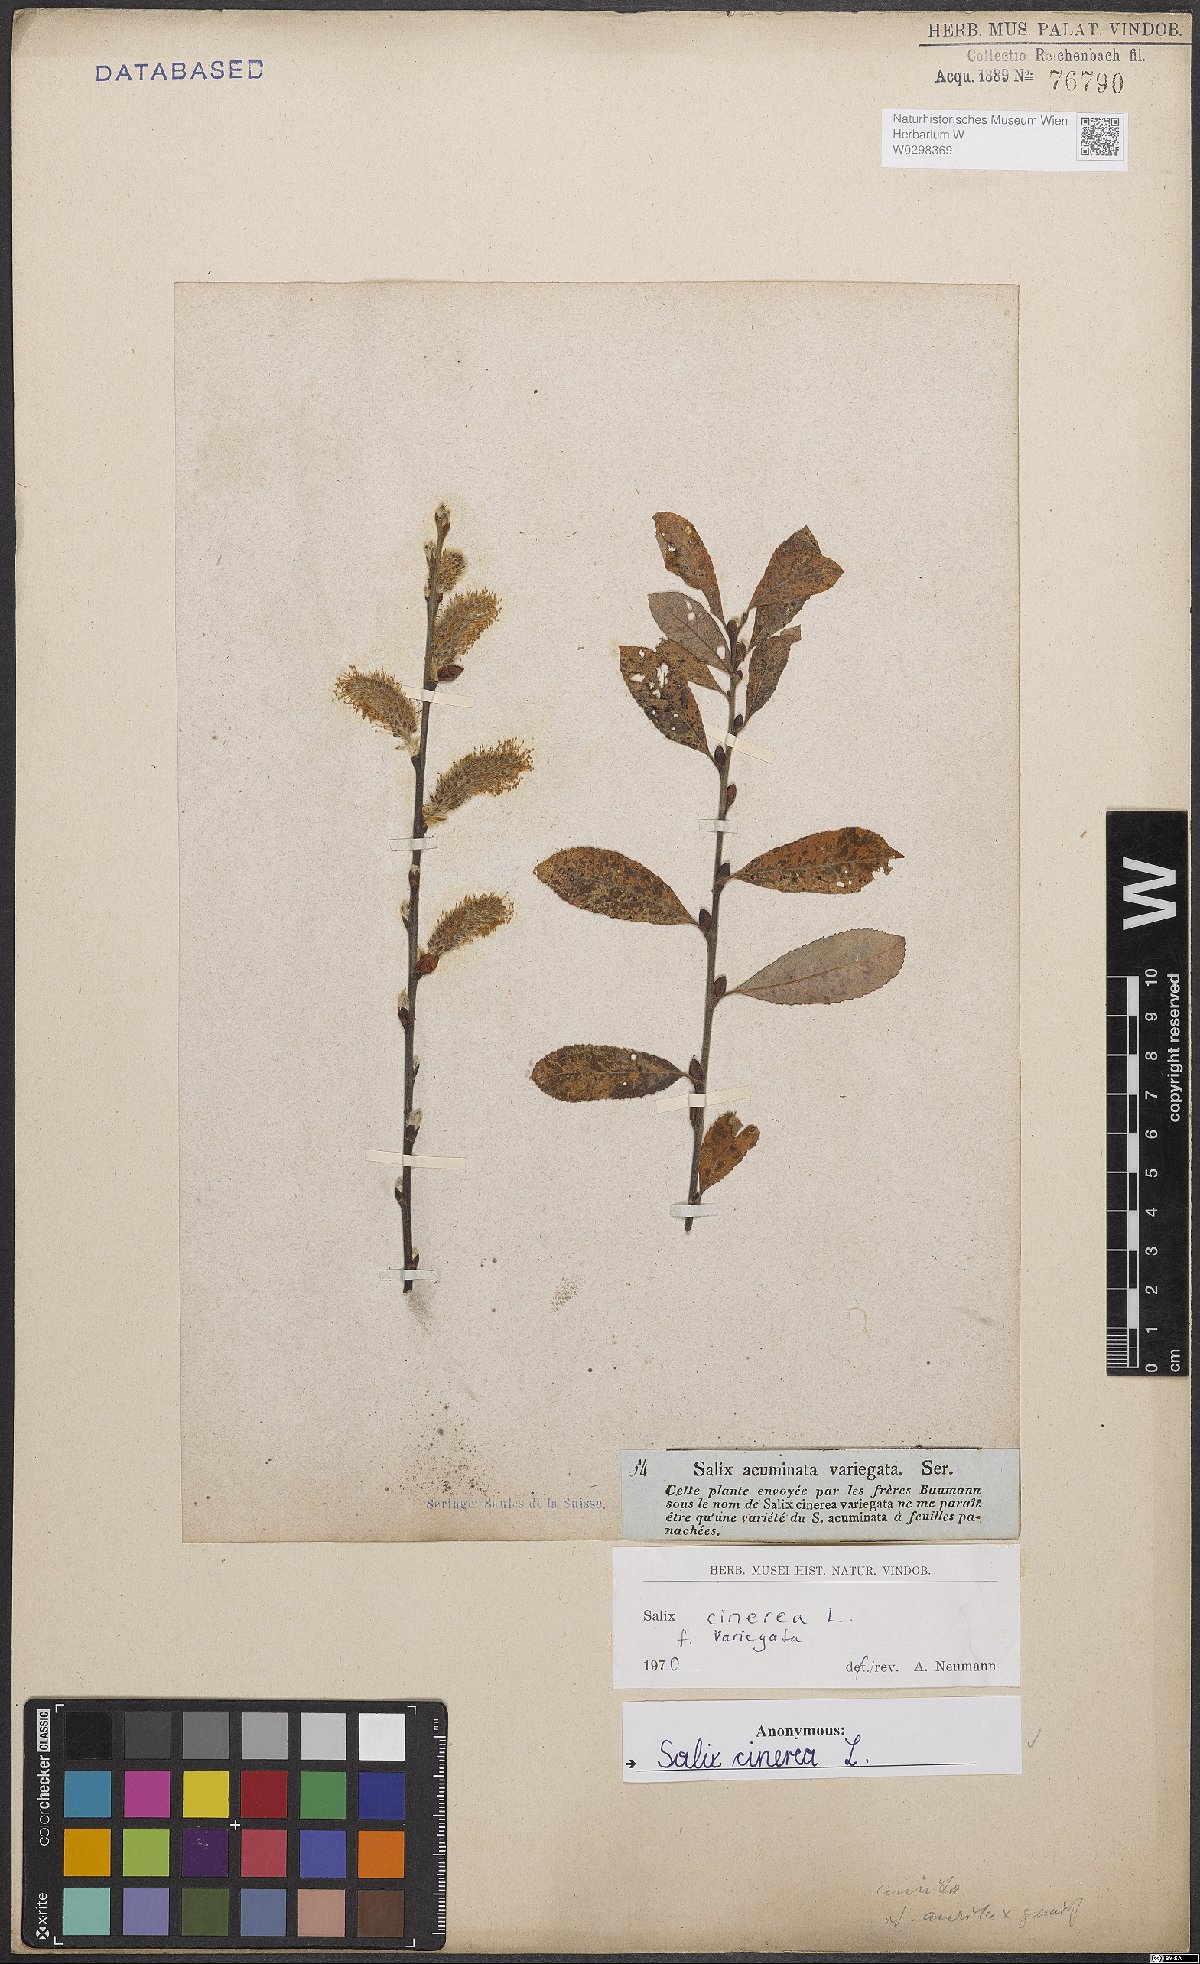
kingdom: Plantae
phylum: Tracheophyta
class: Magnoliopsida
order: Malpighiales
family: Salicaceae
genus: Salix
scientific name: Salix cinerea
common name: Common sallow
